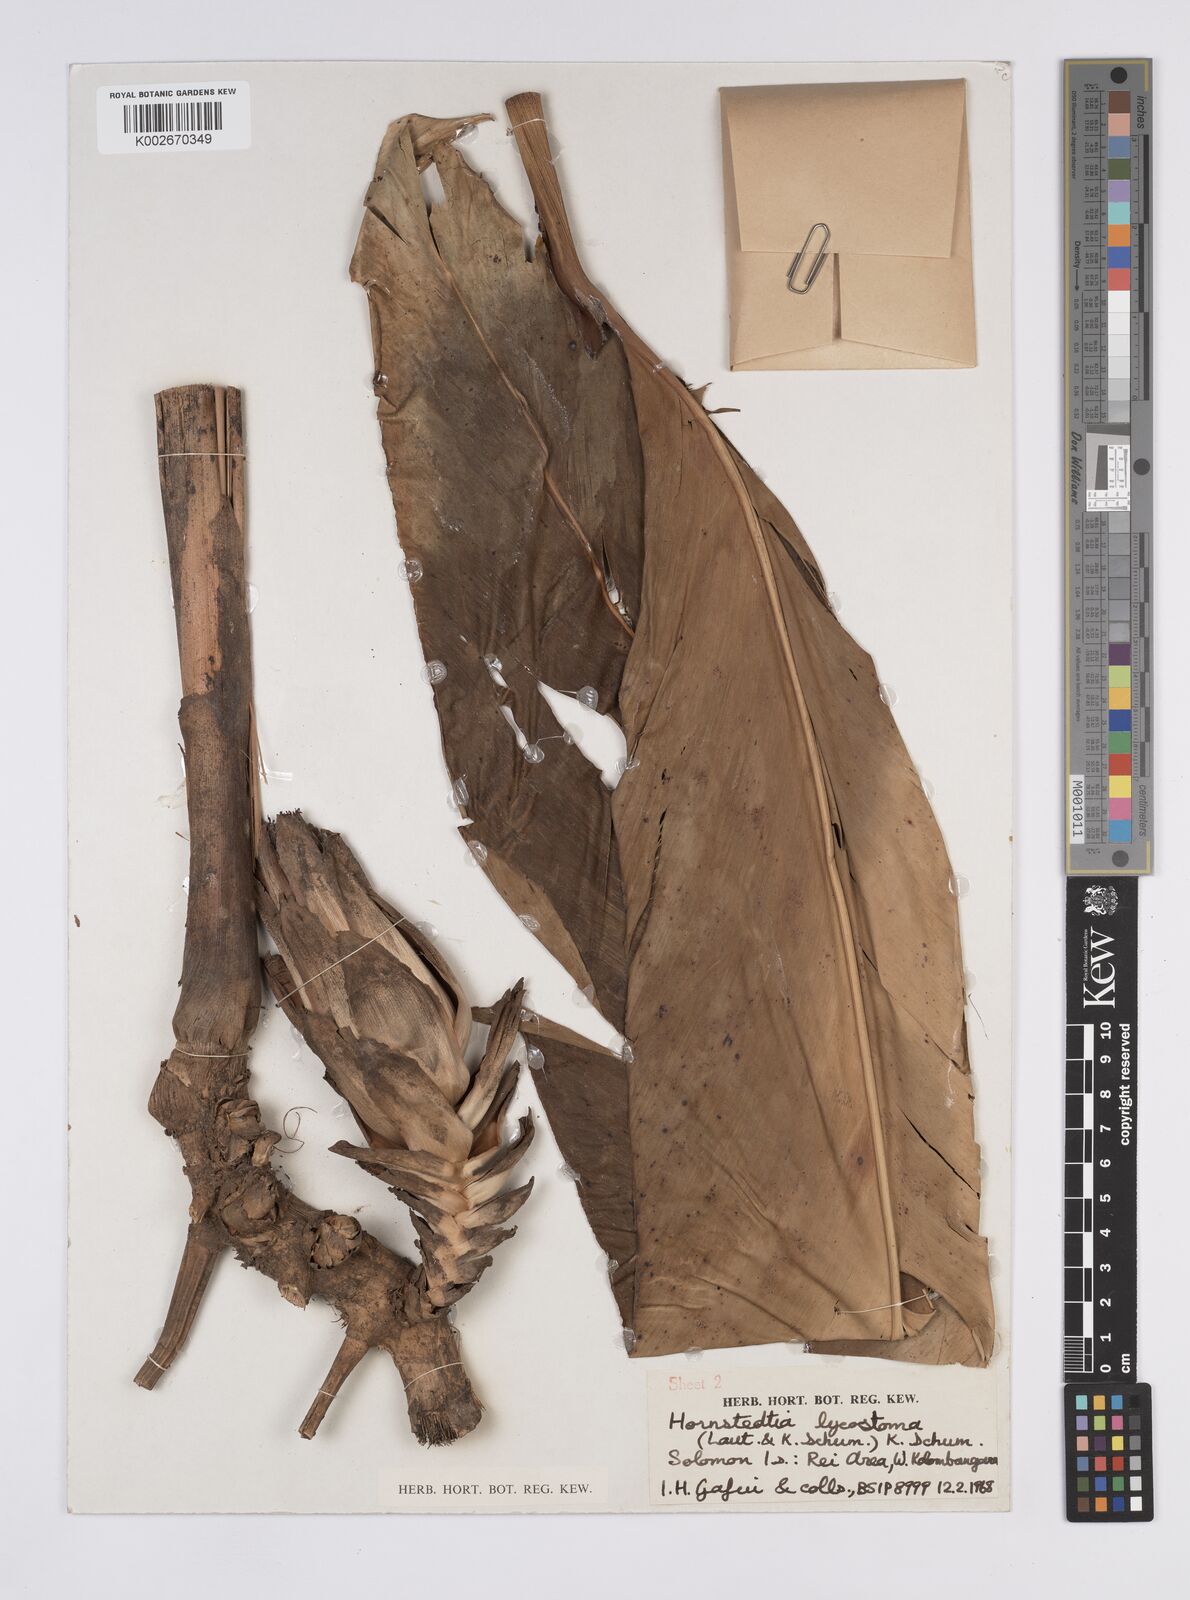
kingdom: Plantae
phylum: Tracheophyta
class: Liliopsida
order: Zingiberales
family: Zingiberaceae
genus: Hornstedtia
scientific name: Hornstedtia scottiana
